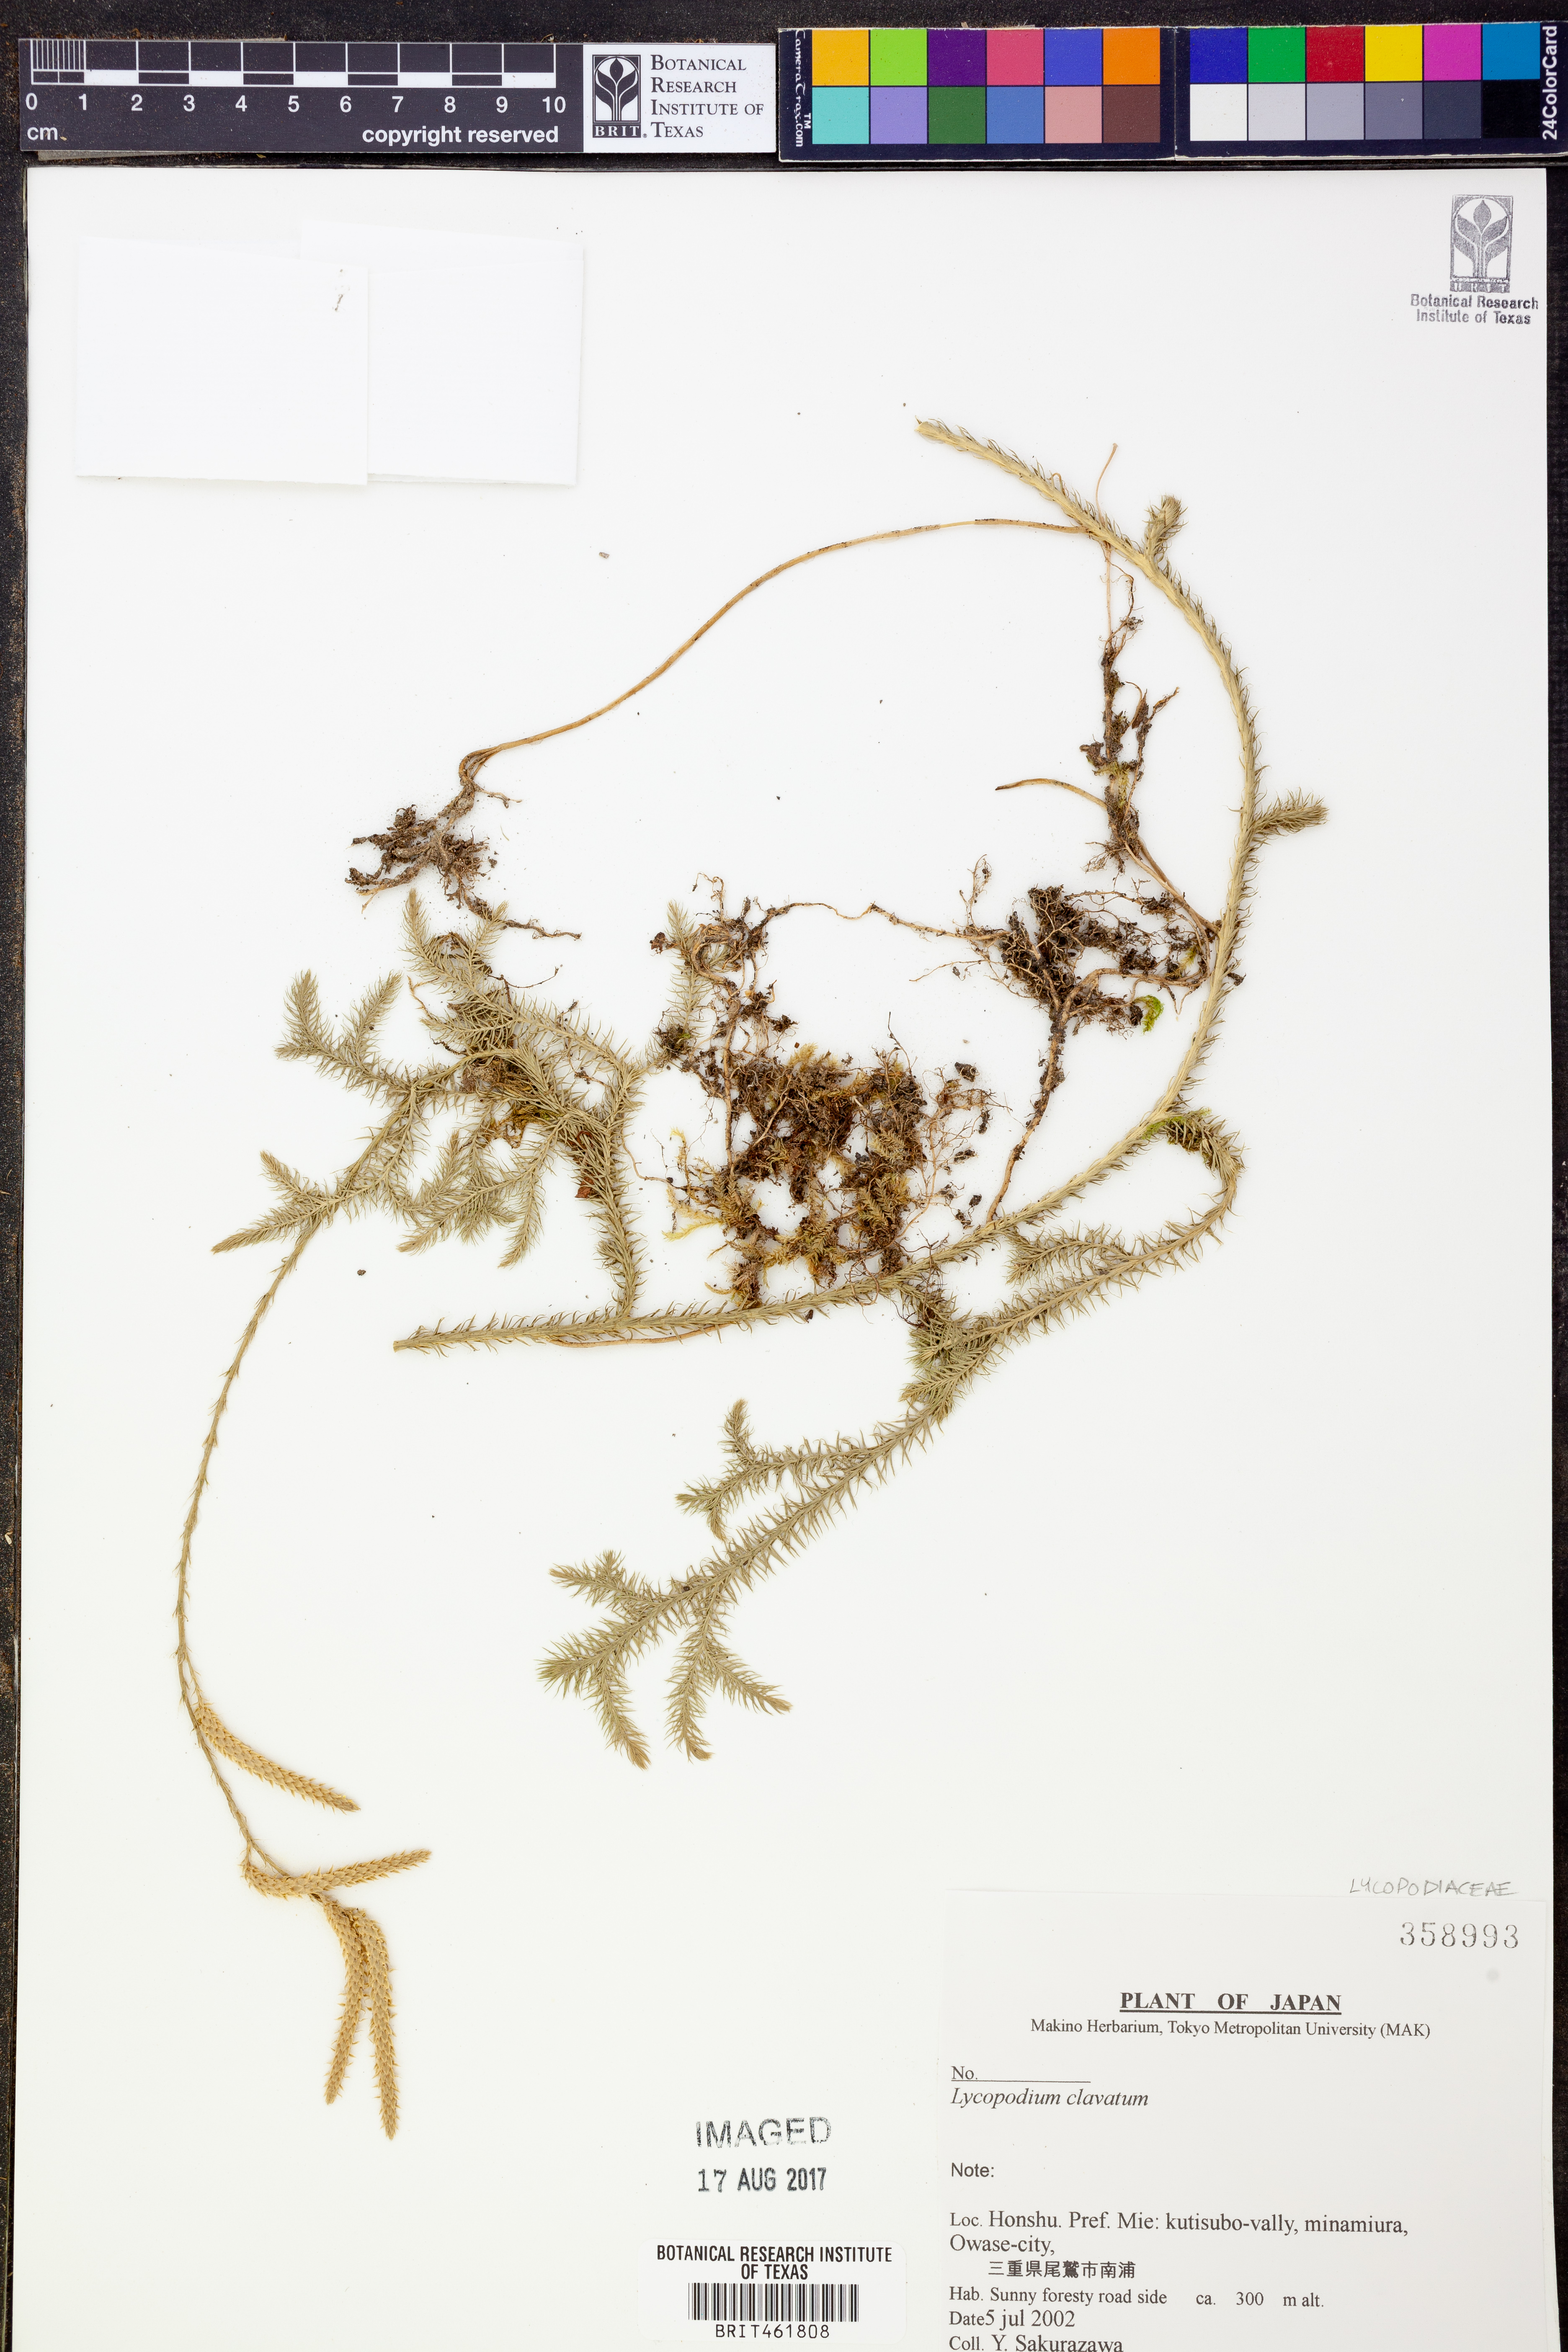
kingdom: Plantae
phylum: Tracheophyta
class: Lycopodiopsida
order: Lycopodiales
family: Lycopodiaceae
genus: Lycopodium
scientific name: Lycopodium clavatum
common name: Stag's-horn clubmoss
